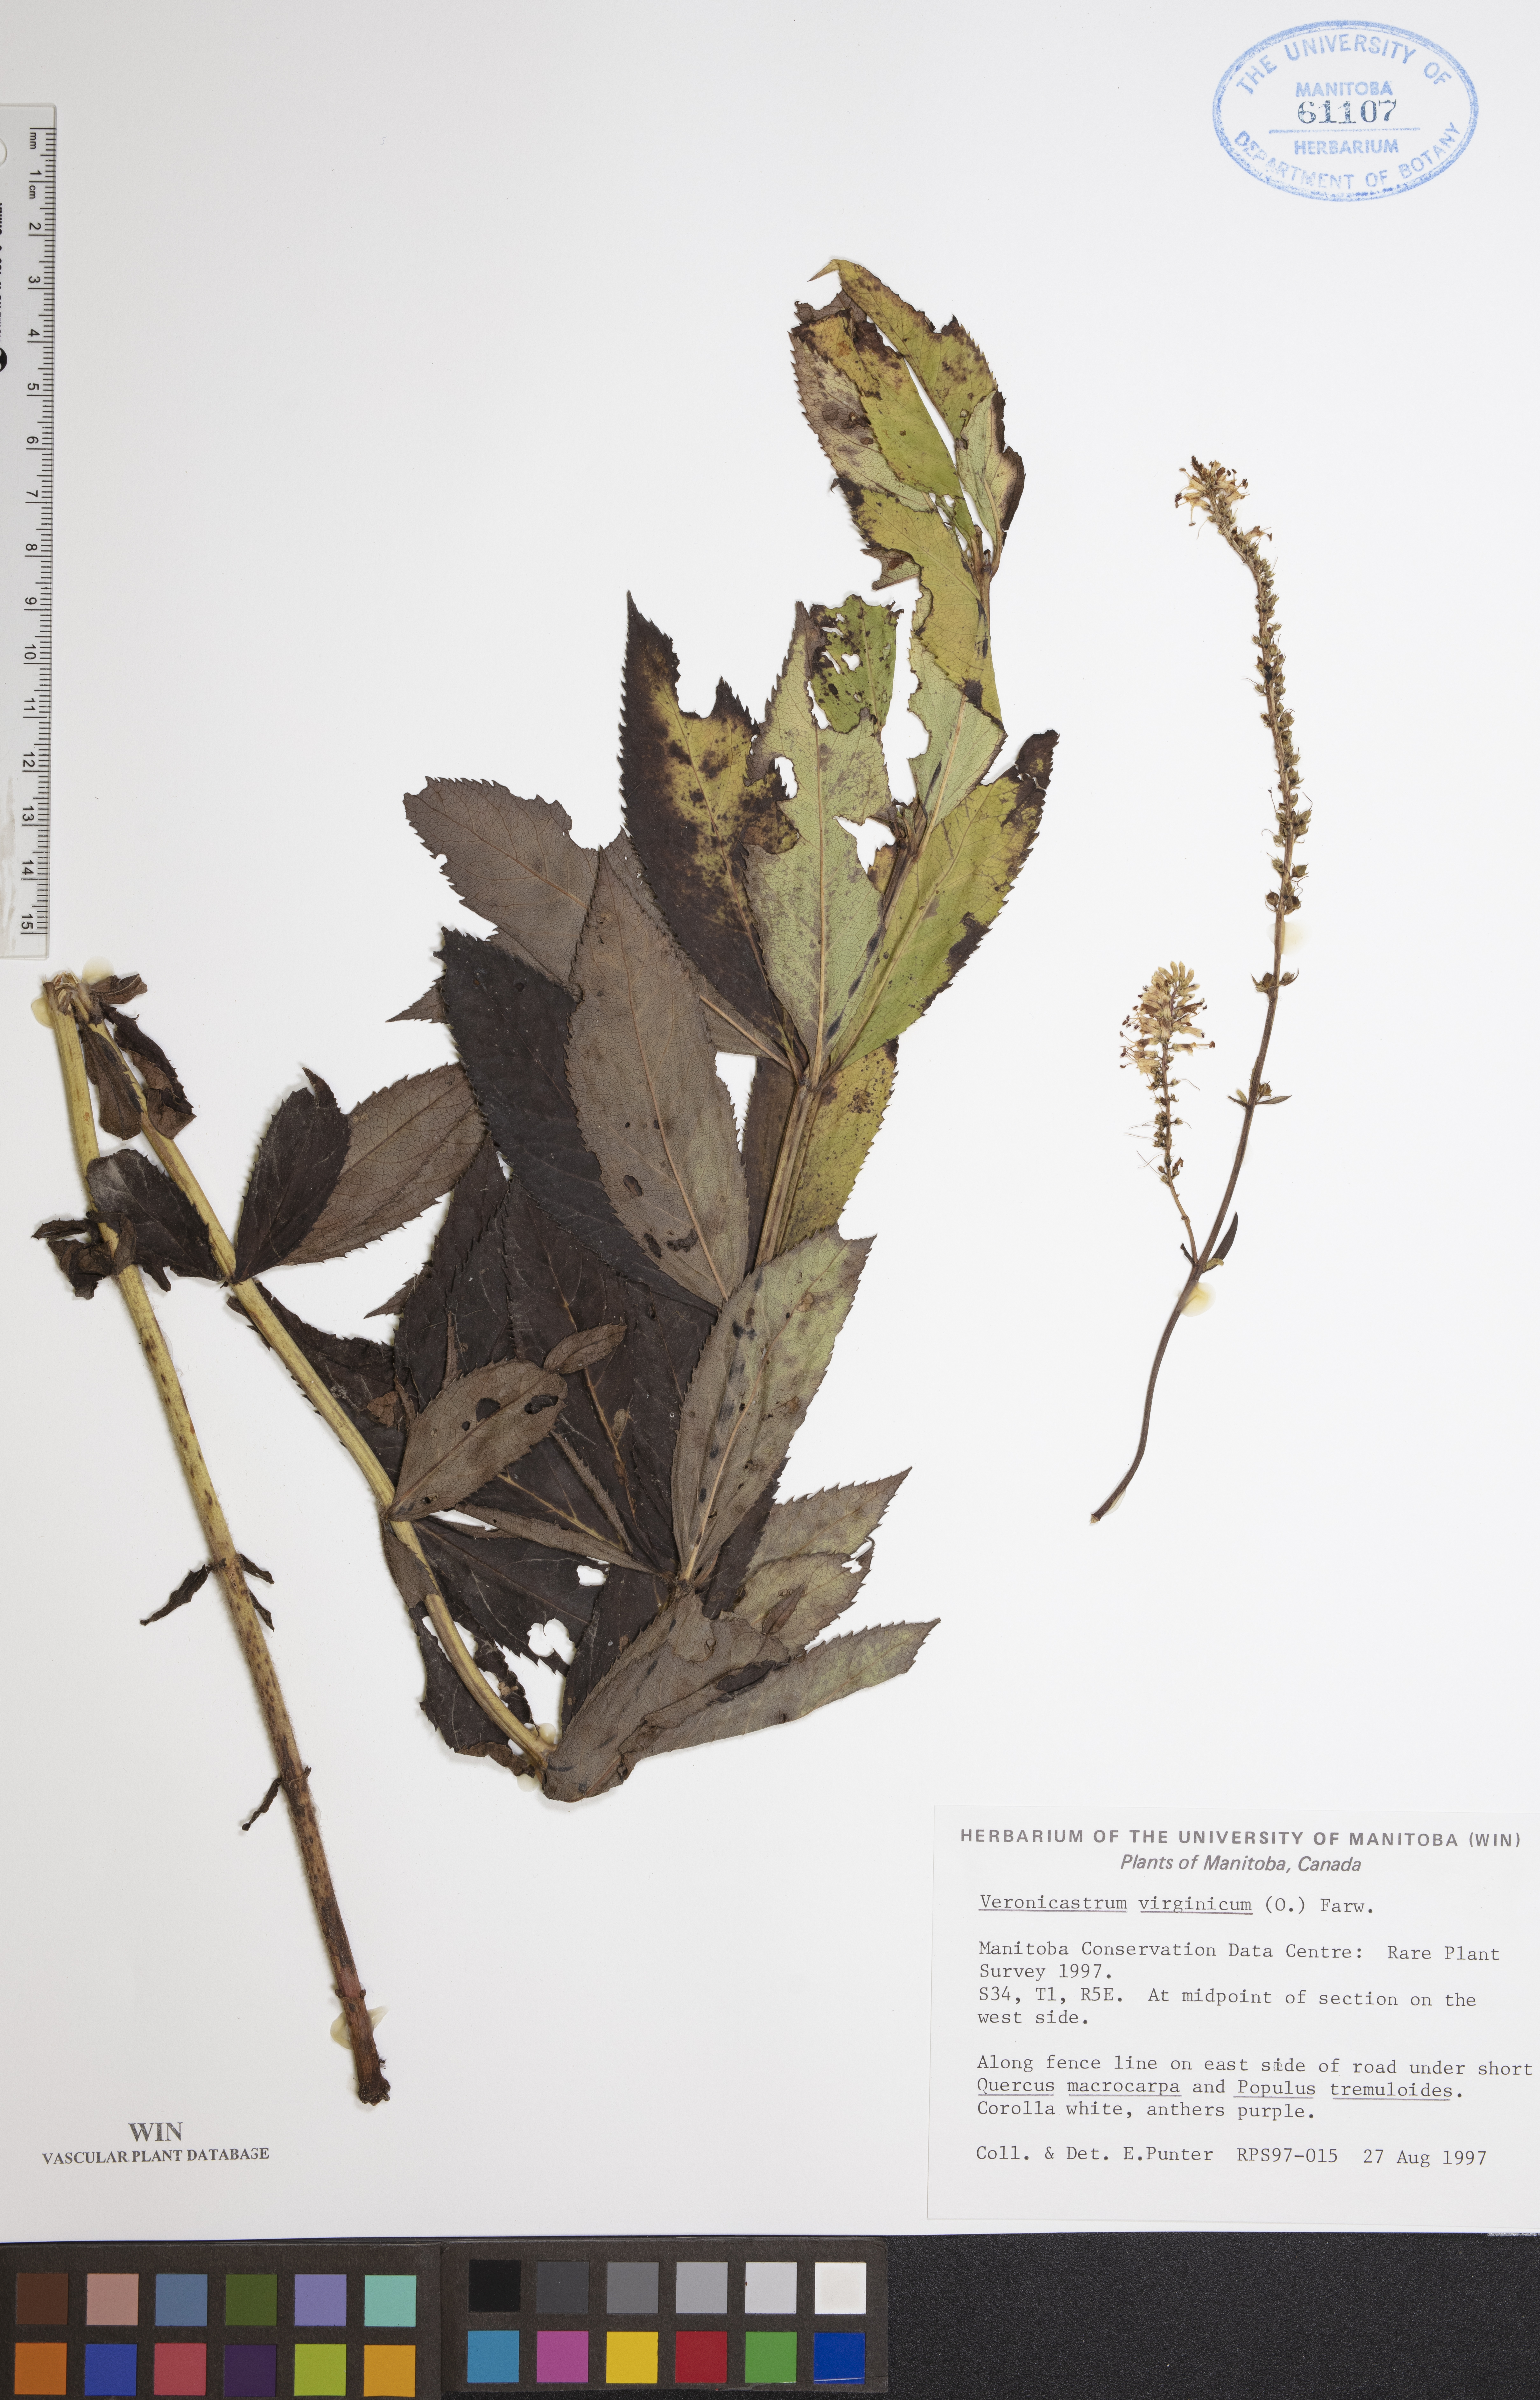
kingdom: Plantae
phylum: Tracheophyta
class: Magnoliopsida
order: Lamiales
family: Plantaginaceae
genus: Veronicastrum
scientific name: Veronicastrum virginicum
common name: Blackroot
